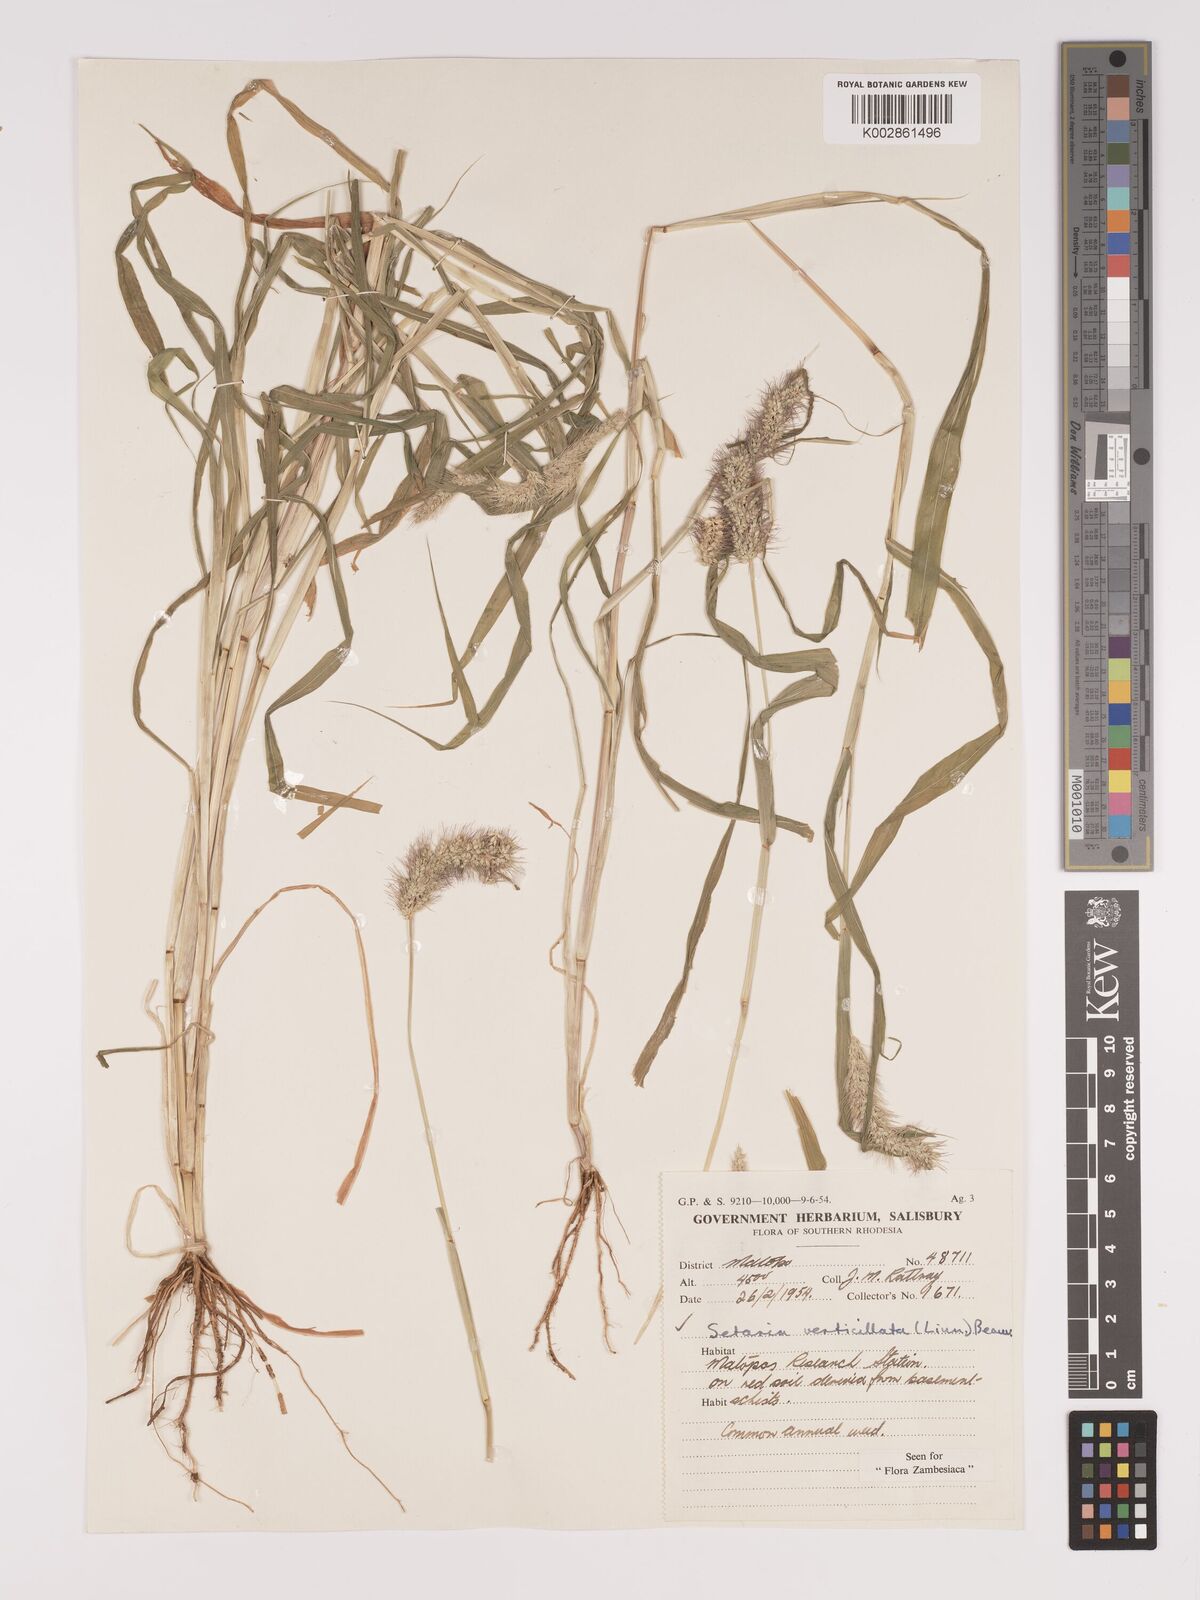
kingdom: Plantae
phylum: Tracheophyta
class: Liliopsida
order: Poales
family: Poaceae
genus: Setaria
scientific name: Setaria verticillata
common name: Hooked bristlegrass
